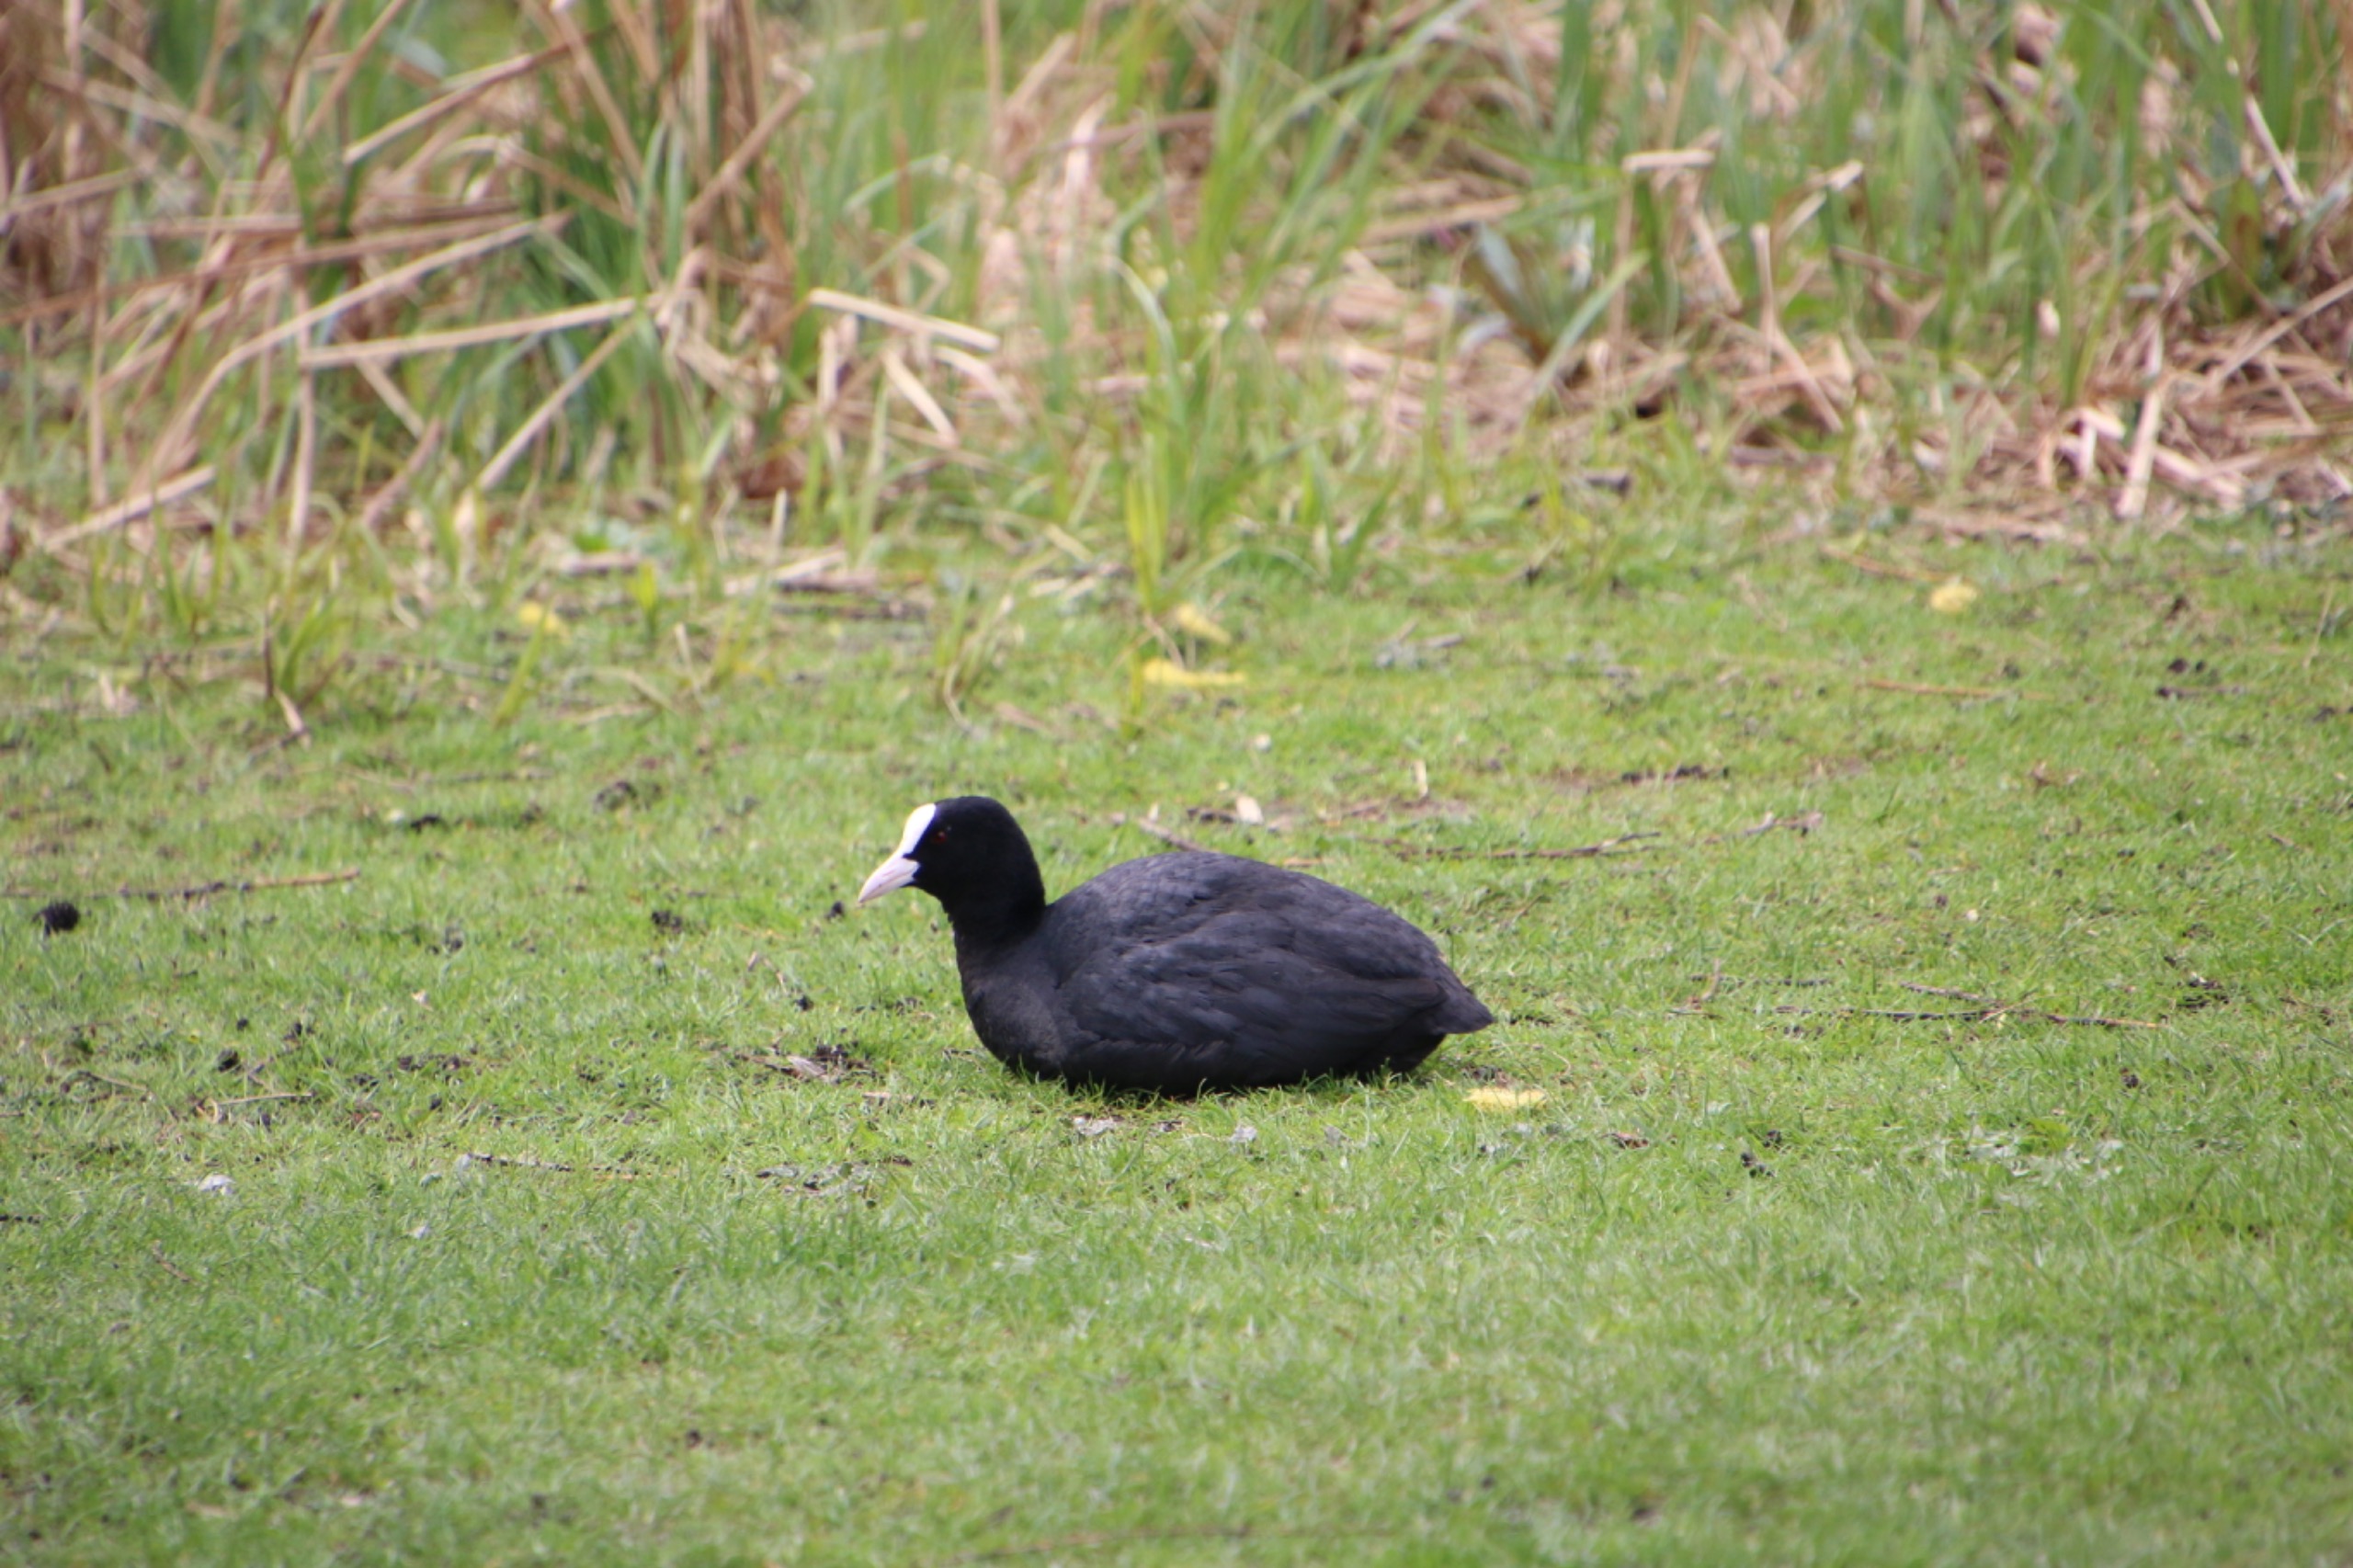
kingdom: Animalia
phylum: Chordata
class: Aves
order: Gruiformes
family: Rallidae
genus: Fulica
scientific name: Fulica atra
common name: Blishøne
